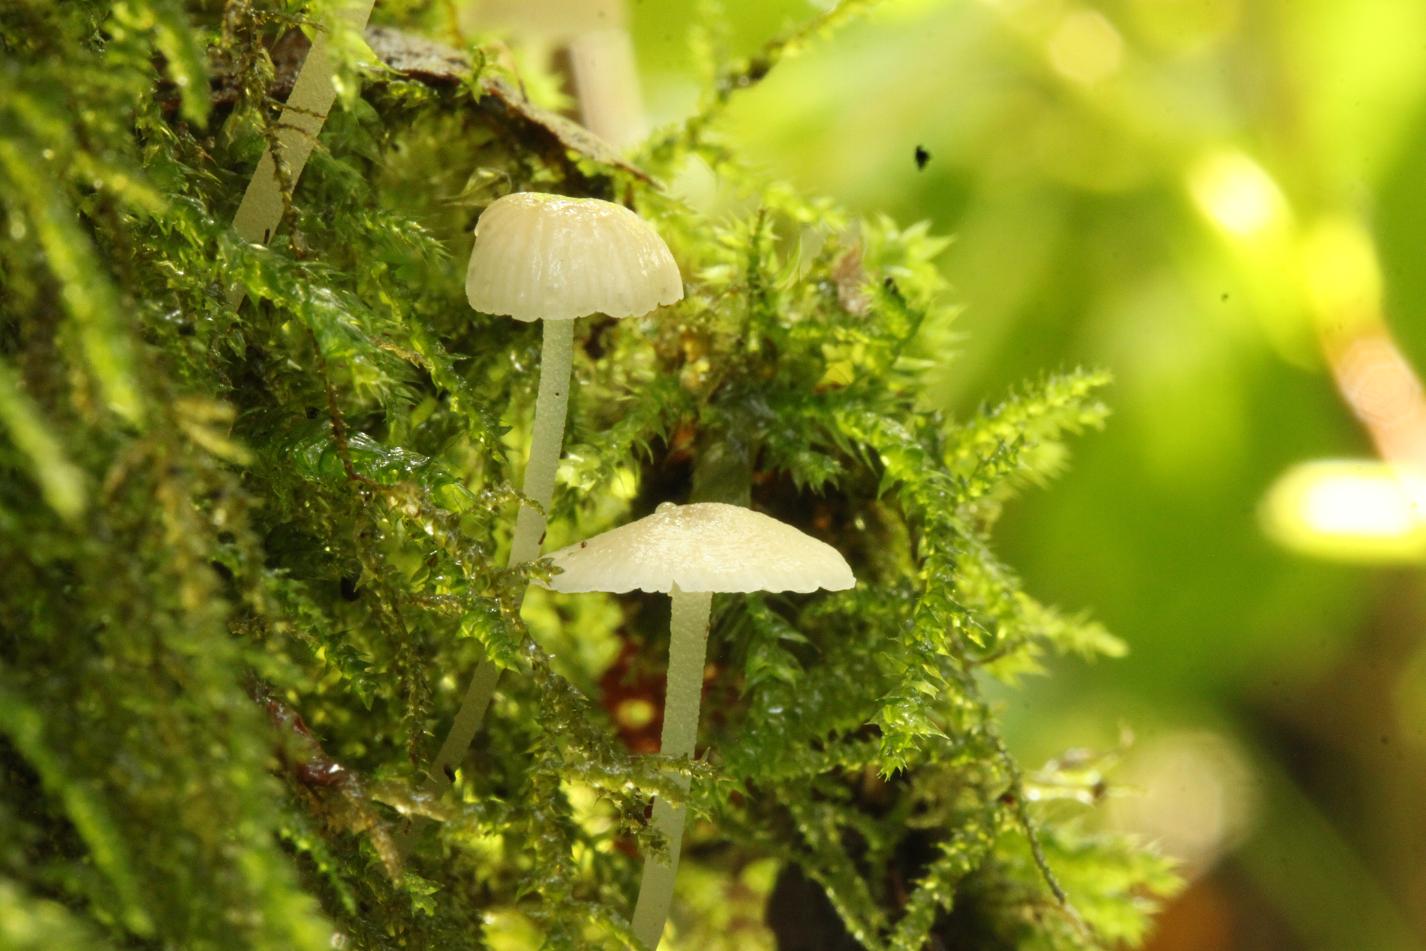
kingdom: Fungi
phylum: Basidiomycota
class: Agaricomycetes
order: Agaricales
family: Porotheleaceae
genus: Phloeomana
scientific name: Phloeomana minutula
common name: bleg huesvamp
